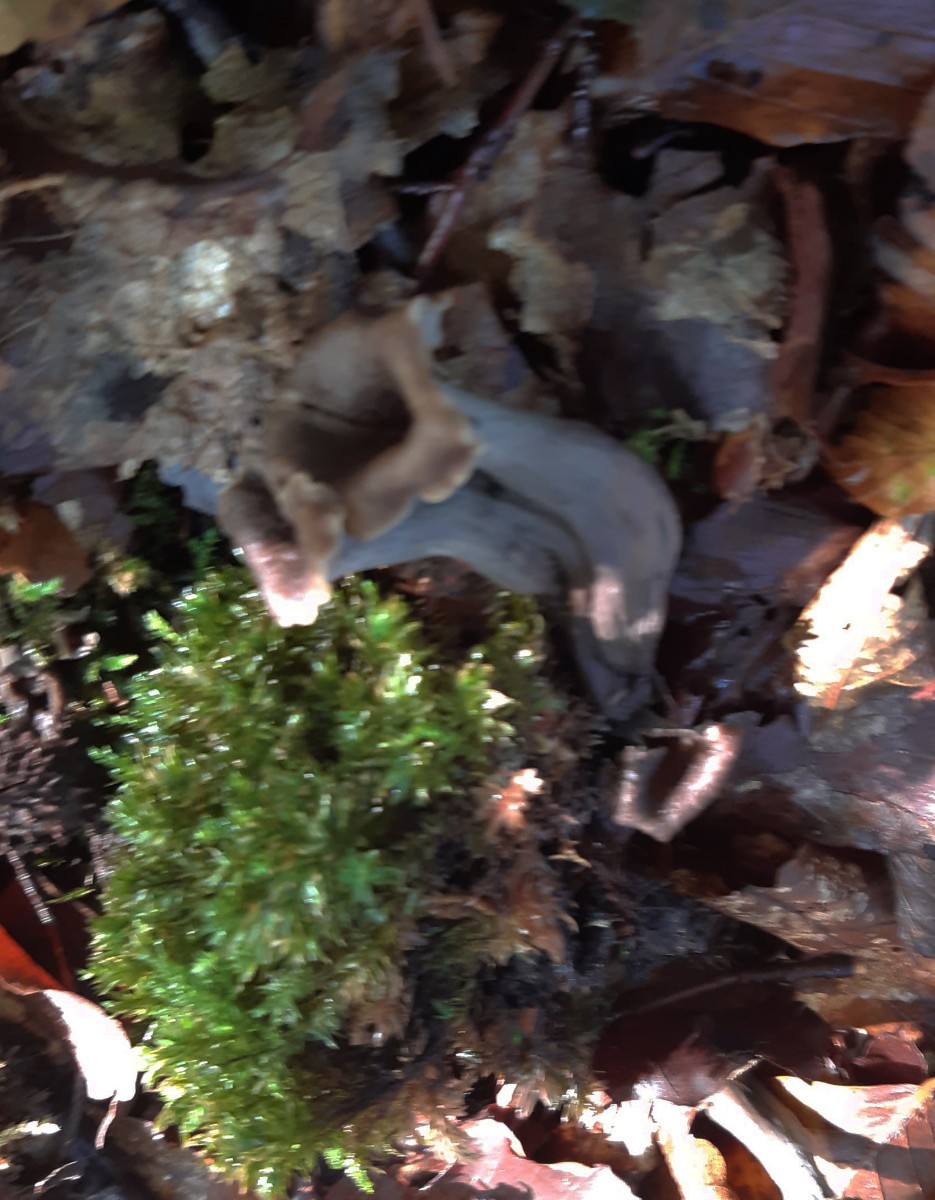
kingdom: Fungi
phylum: Basidiomycota
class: Agaricomycetes
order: Cantharellales
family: Hydnaceae
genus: Craterellus
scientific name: Craterellus cornucopioides
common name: trompetsvamp
